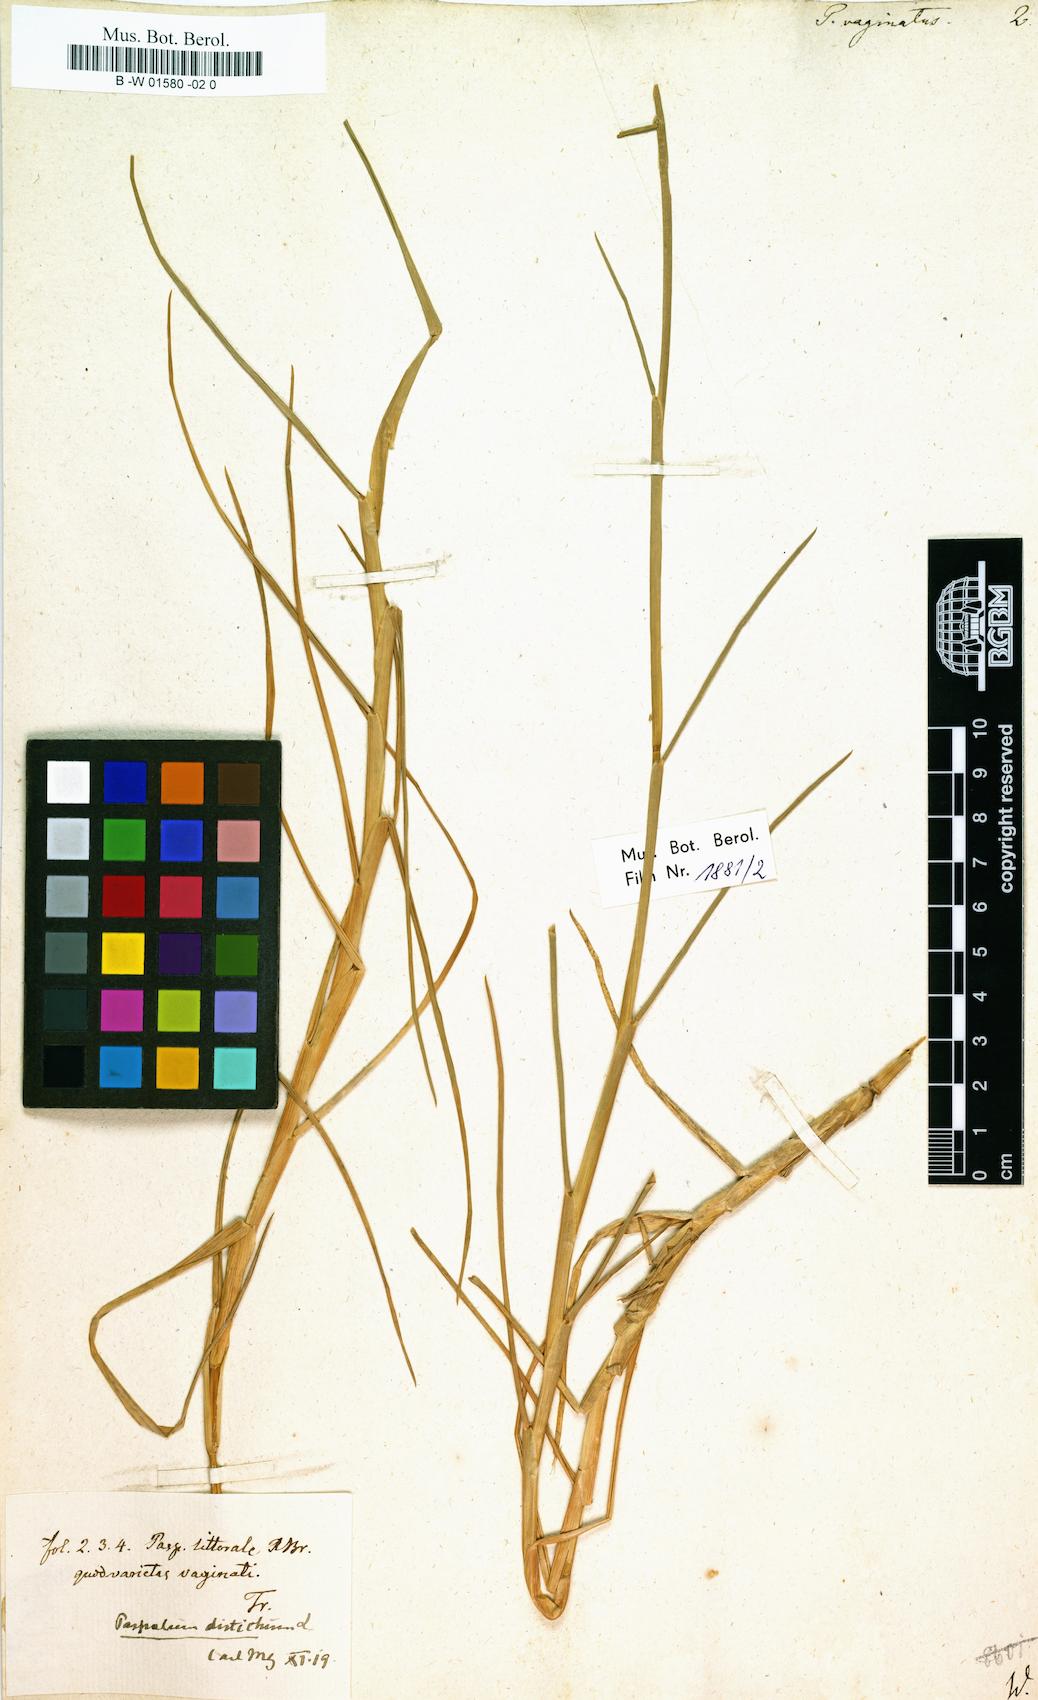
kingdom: Plantae
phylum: Tracheophyta
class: Liliopsida
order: Poales
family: Poaceae
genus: Paspalus
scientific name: Paspalus
